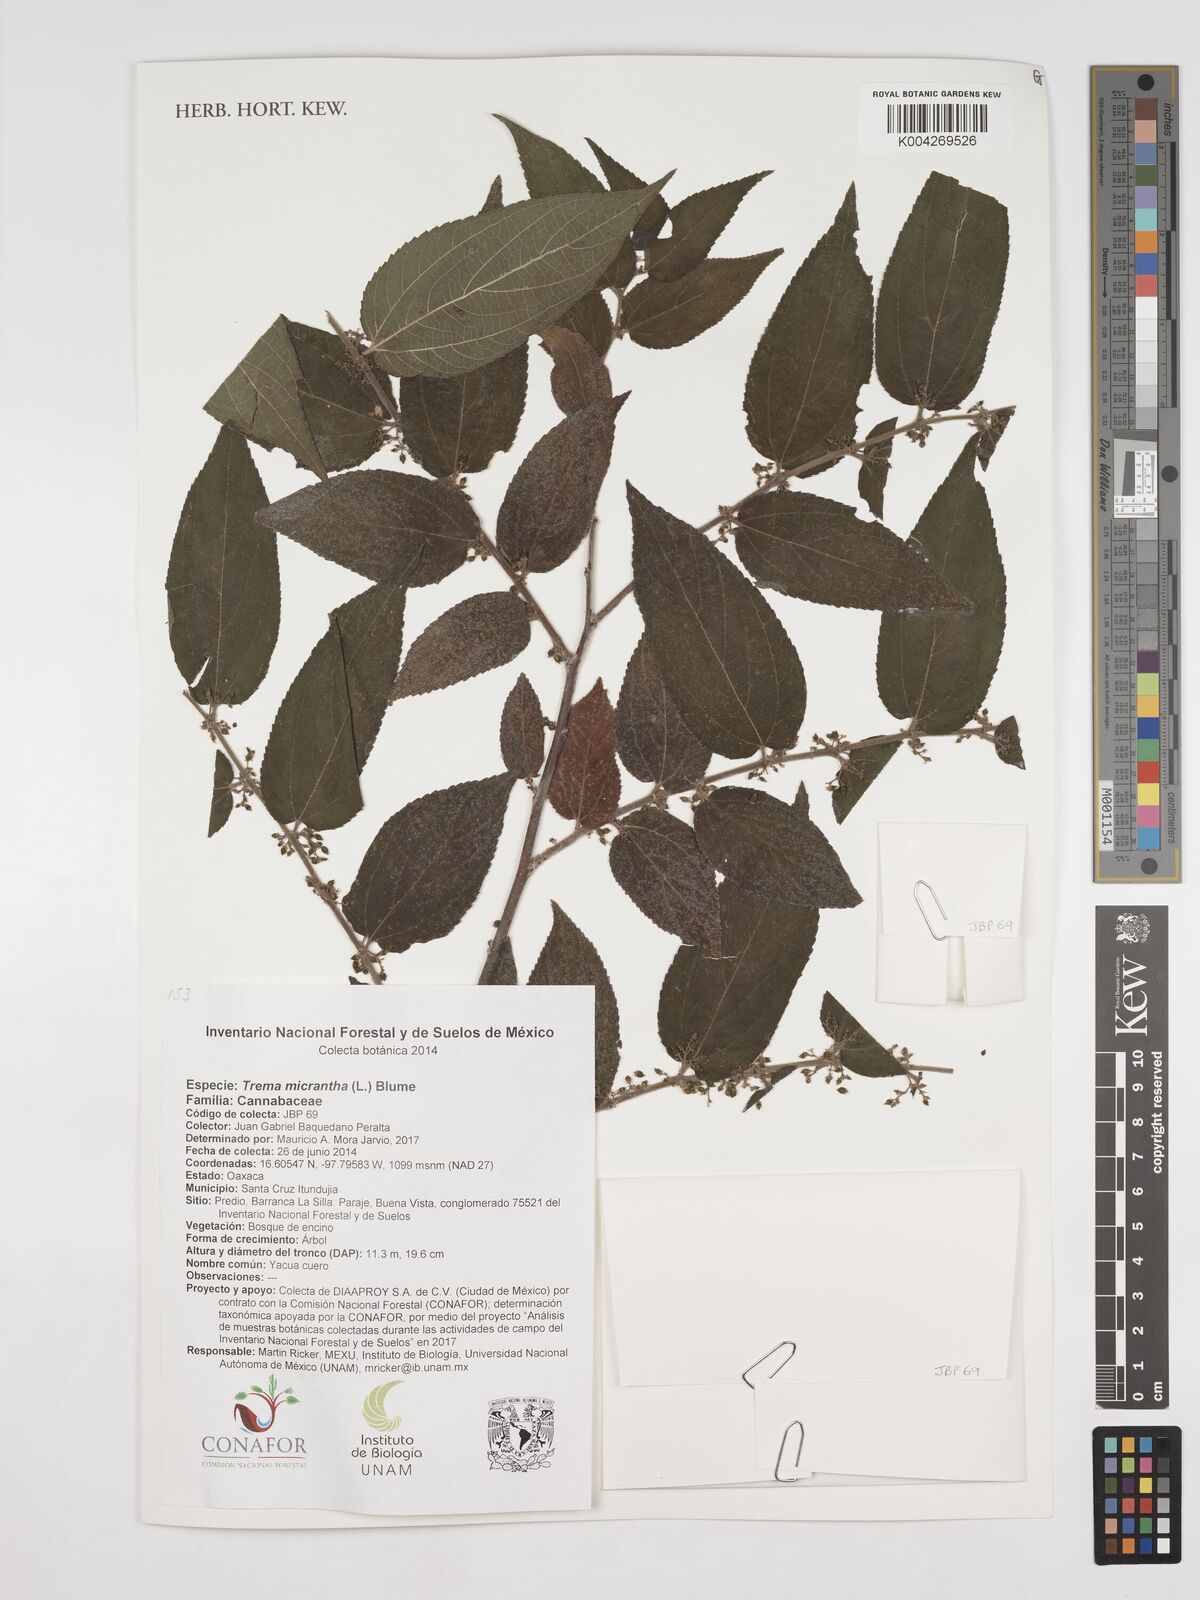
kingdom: Plantae
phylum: Tracheophyta
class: Magnoliopsida
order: Rosales
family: Cannabaceae
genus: Trema
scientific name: Trema micranthum
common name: Jamaican nettletree
